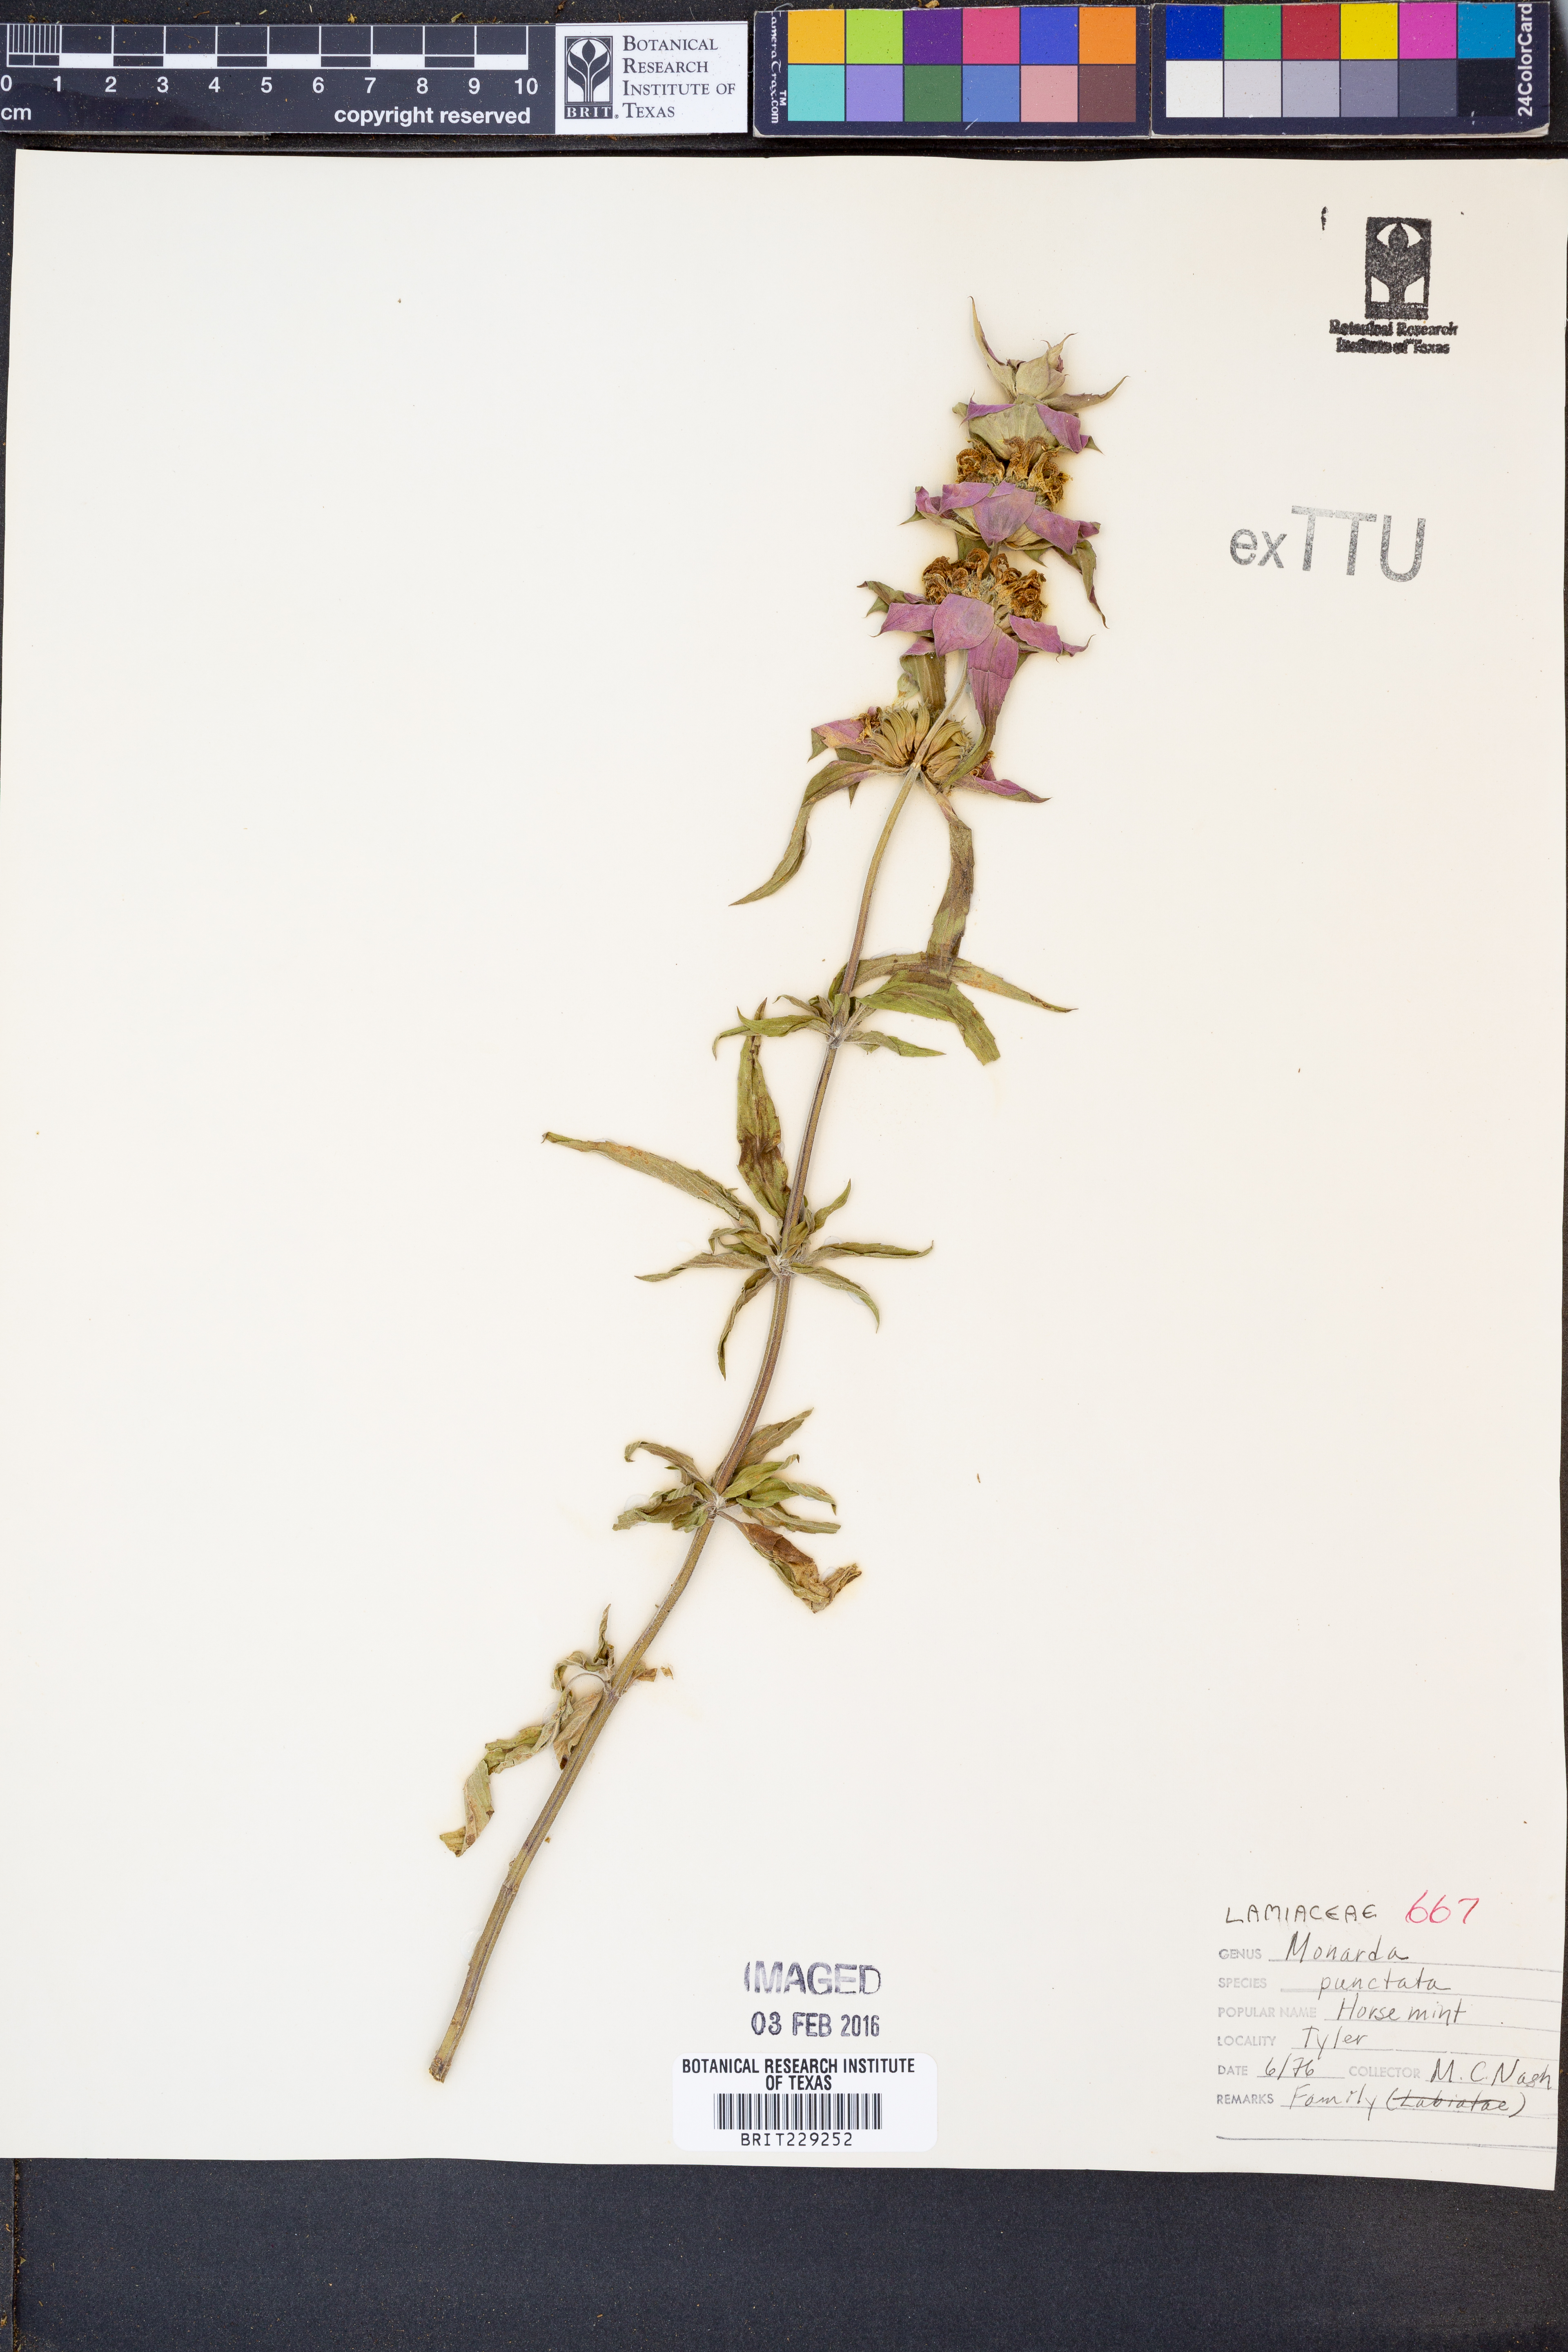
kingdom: Plantae
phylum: Tracheophyta
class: Magnoliopsida
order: Lamiales
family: Lamiaceae
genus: Monarda
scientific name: Monarda punctata
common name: Dotted monarda
